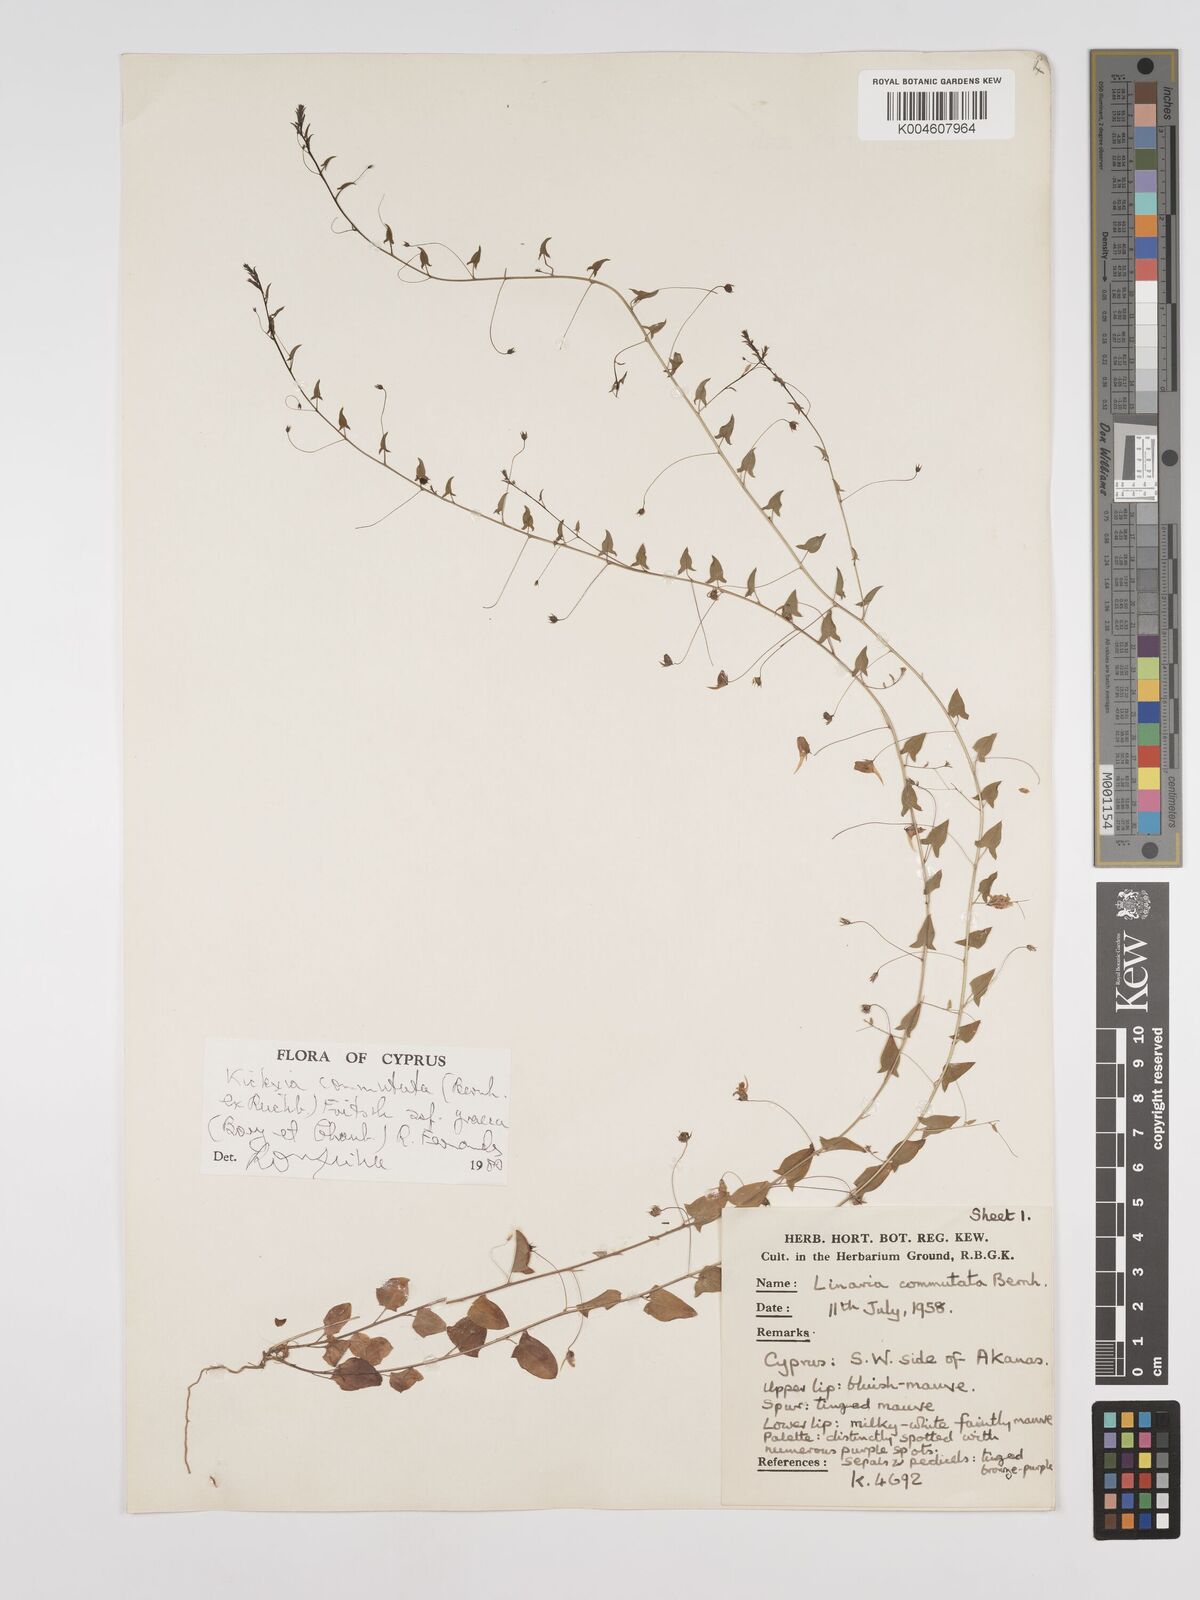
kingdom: Plantae
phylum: Tracheophyta
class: Magnoliopsida
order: Lamiales
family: Plantaginaceae
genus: Kickxia
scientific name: Kickxia commutata
